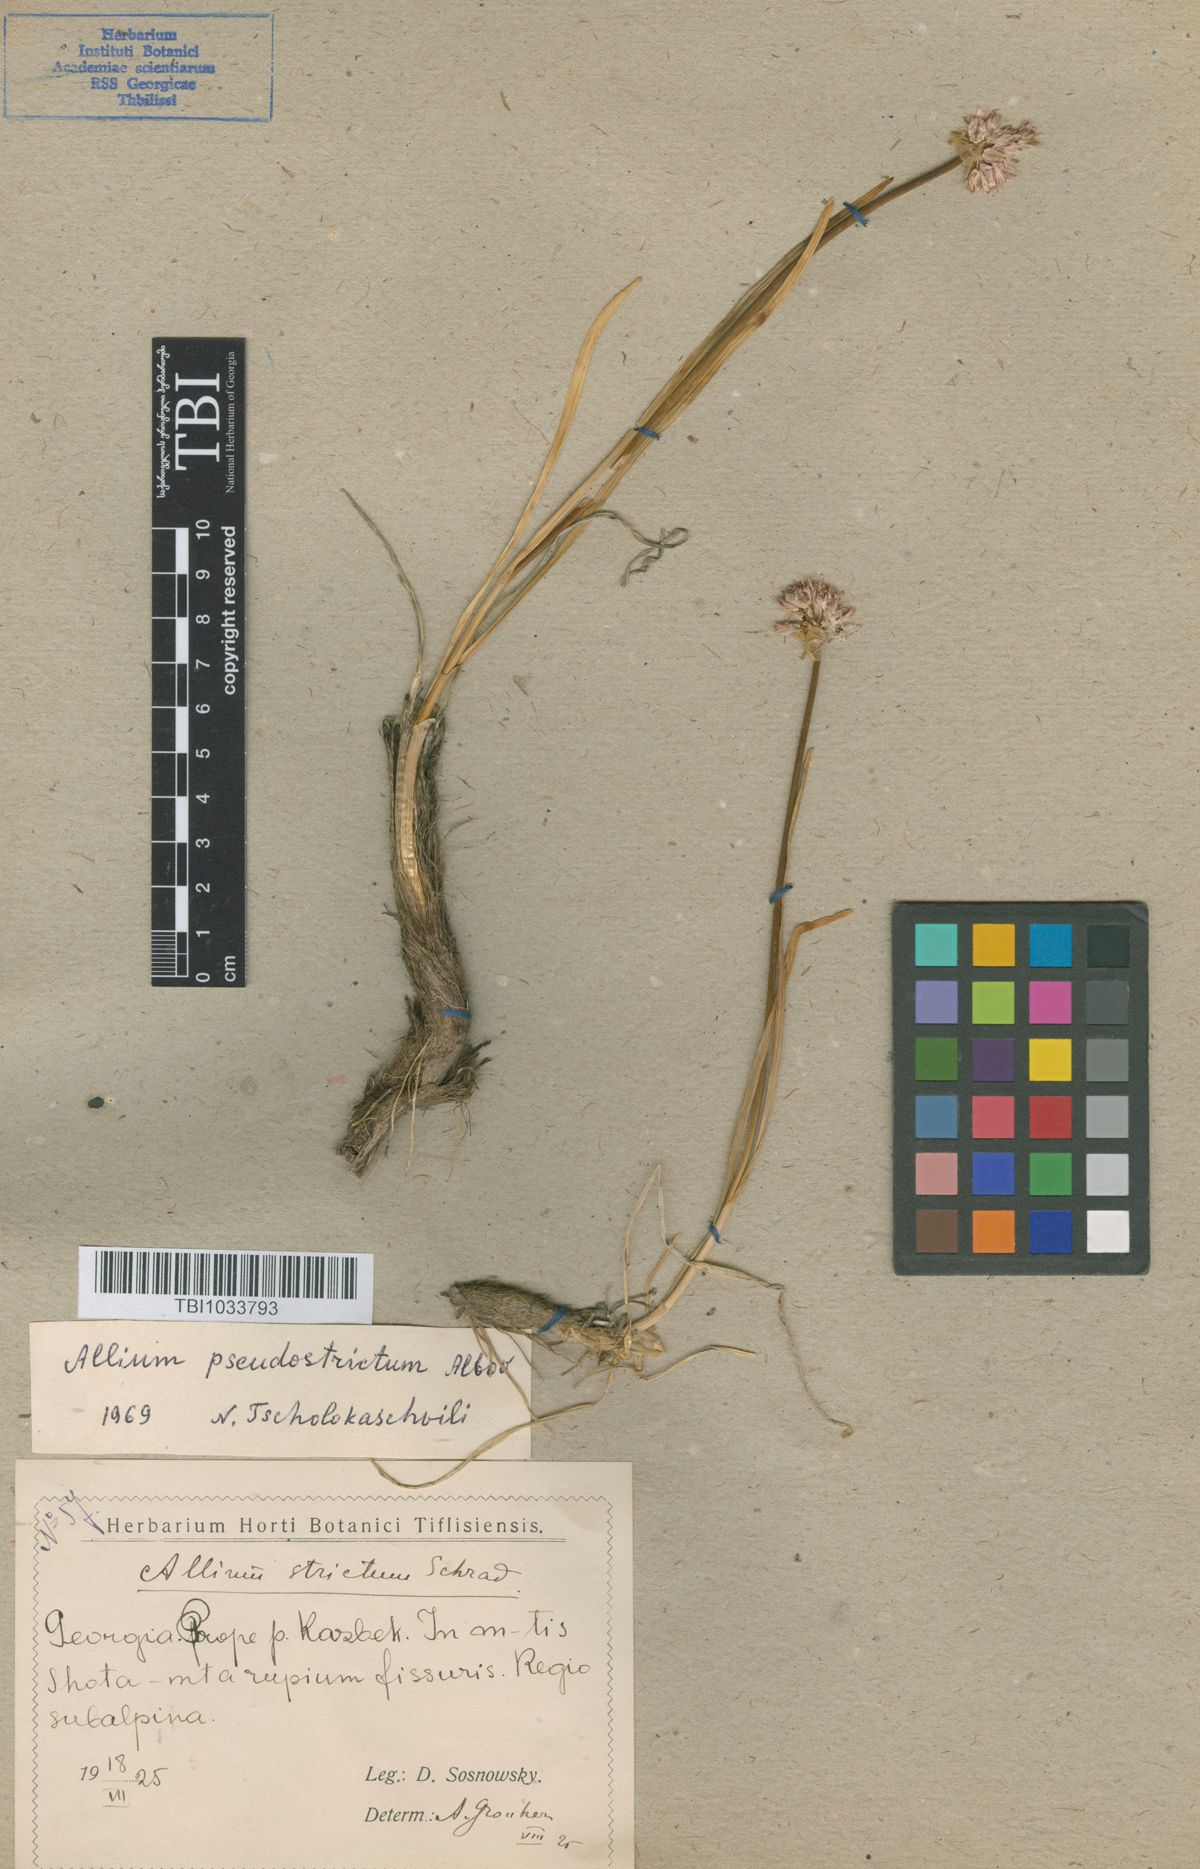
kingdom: Plantae
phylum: Tracheophyta
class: Liliopsida
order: Asparagales
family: Amaryllidaceae
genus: Allium
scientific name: Allium pseudostrictum
